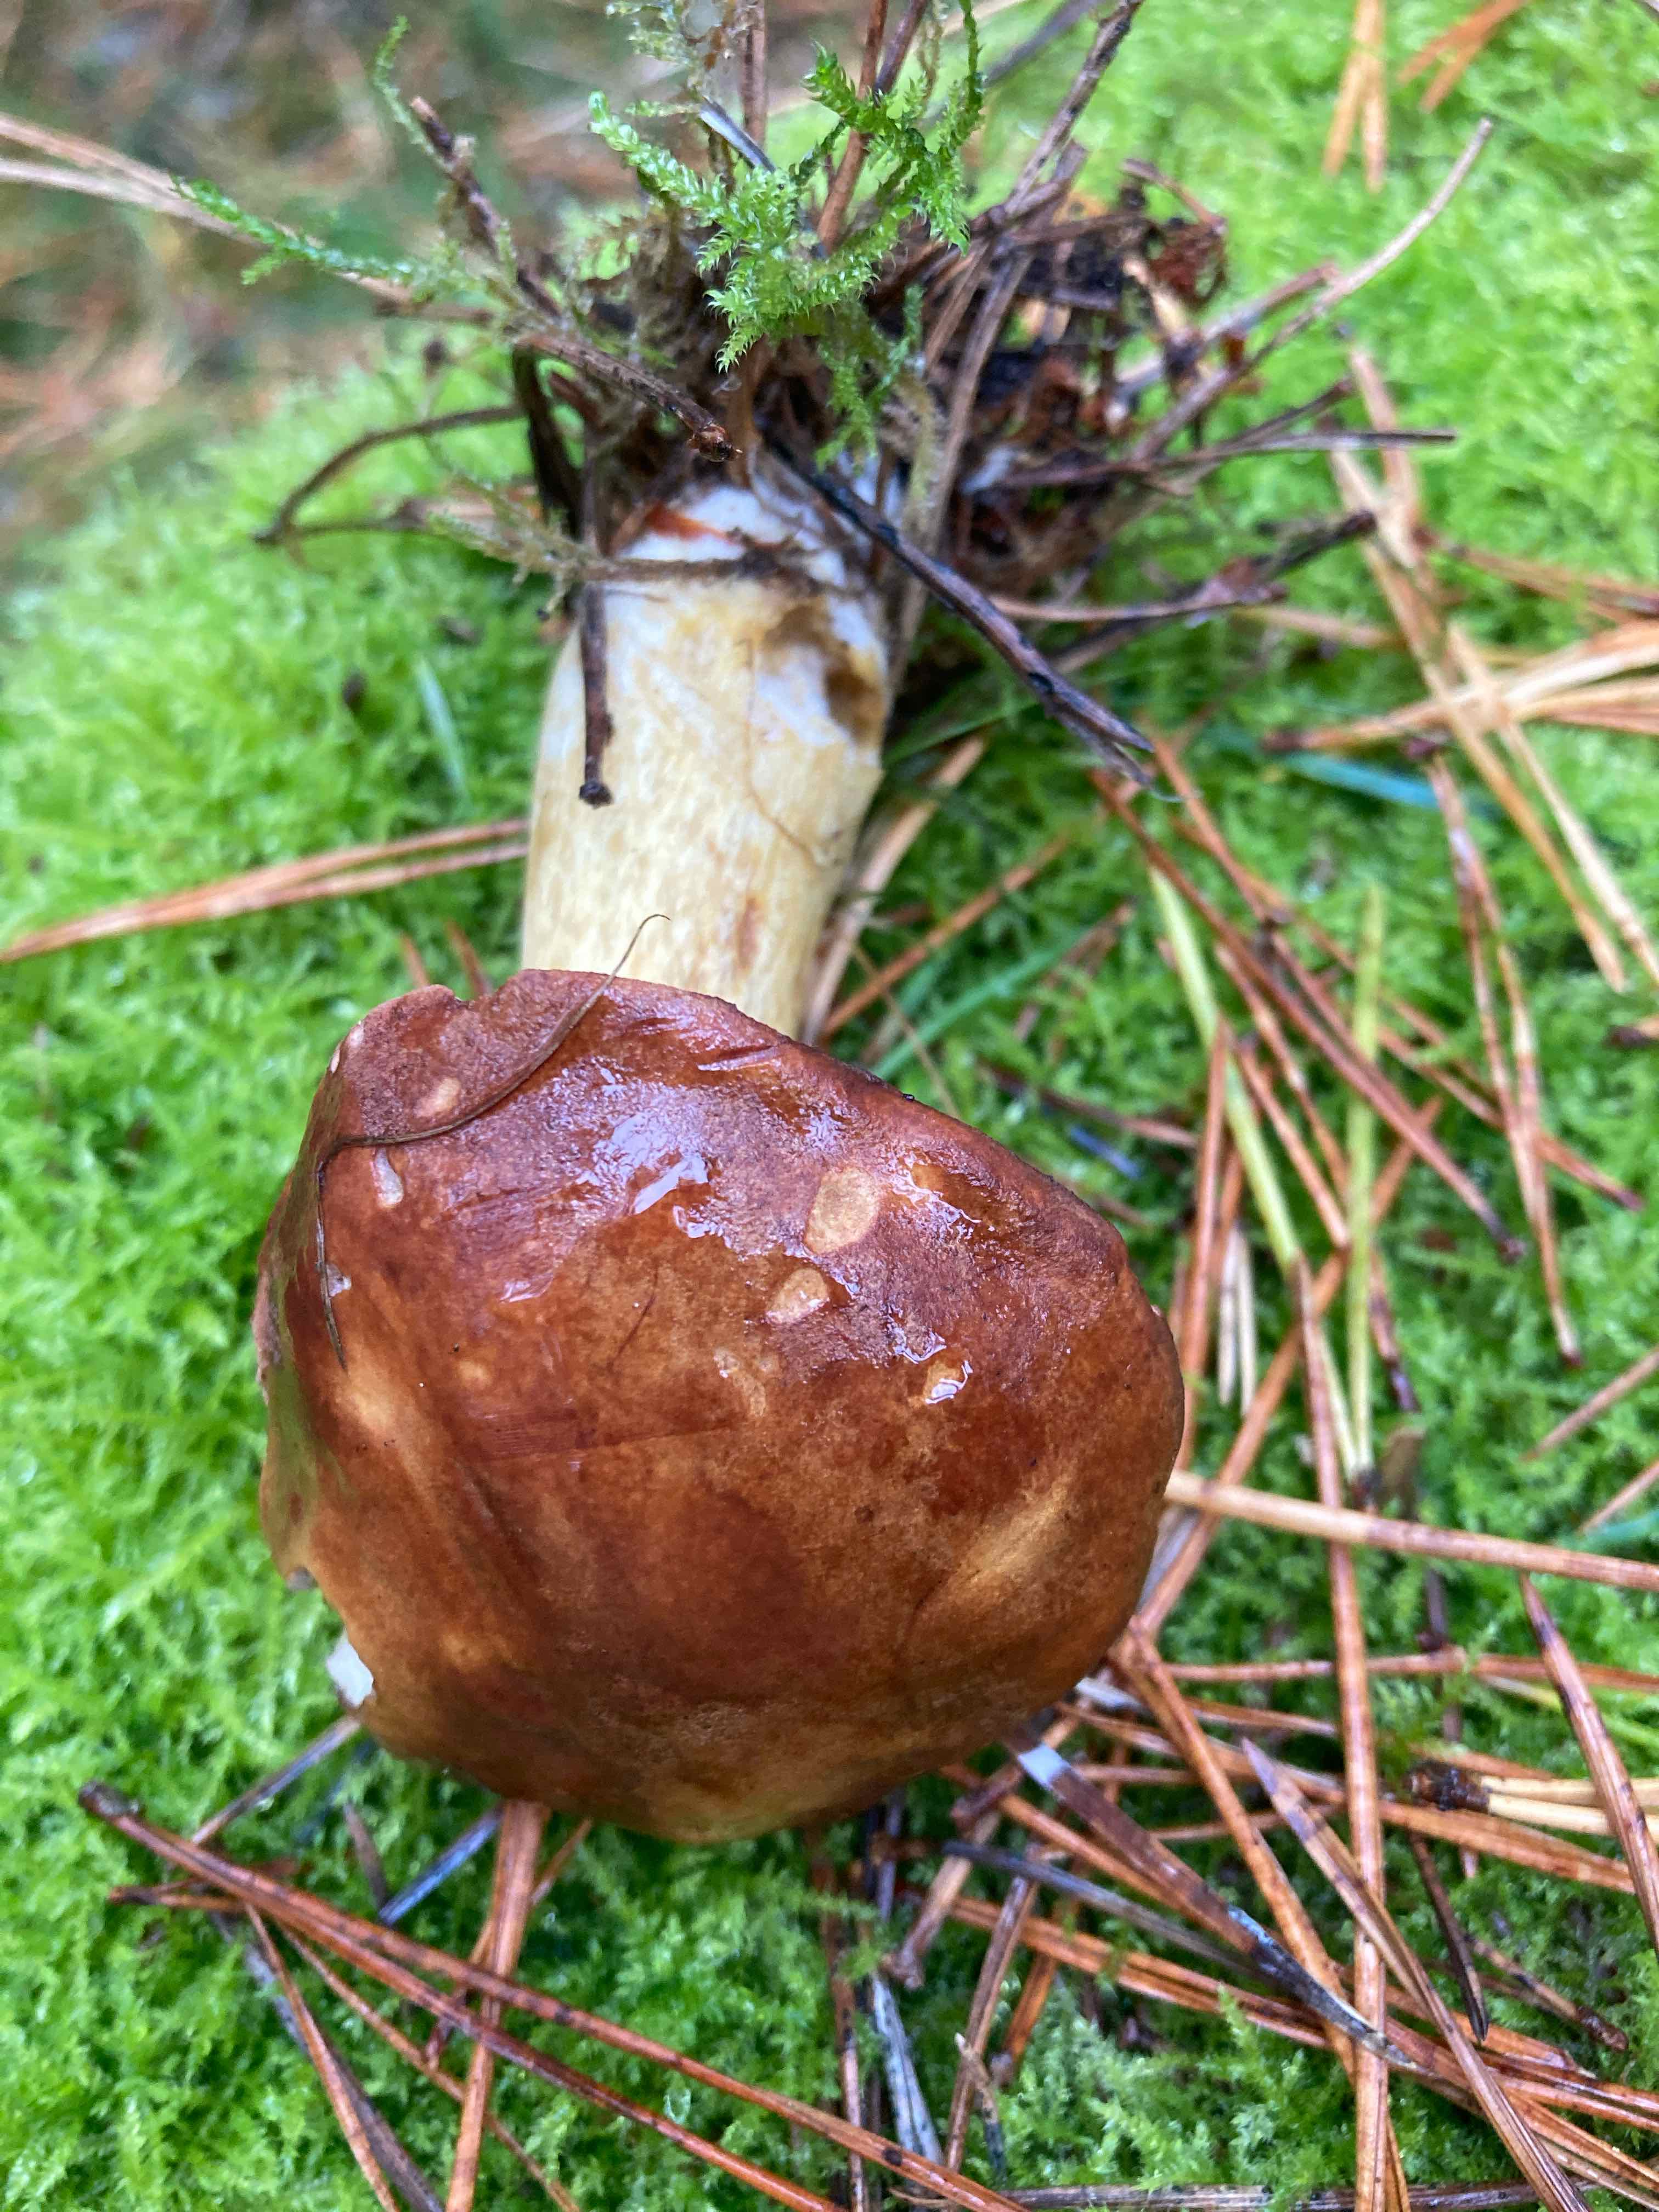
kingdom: Fungi
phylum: Basidiomycota
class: Agaricomycetes
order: Boletales
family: Boletaceae
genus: Imleria
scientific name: Imleria badia
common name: brunstokket rørhat
